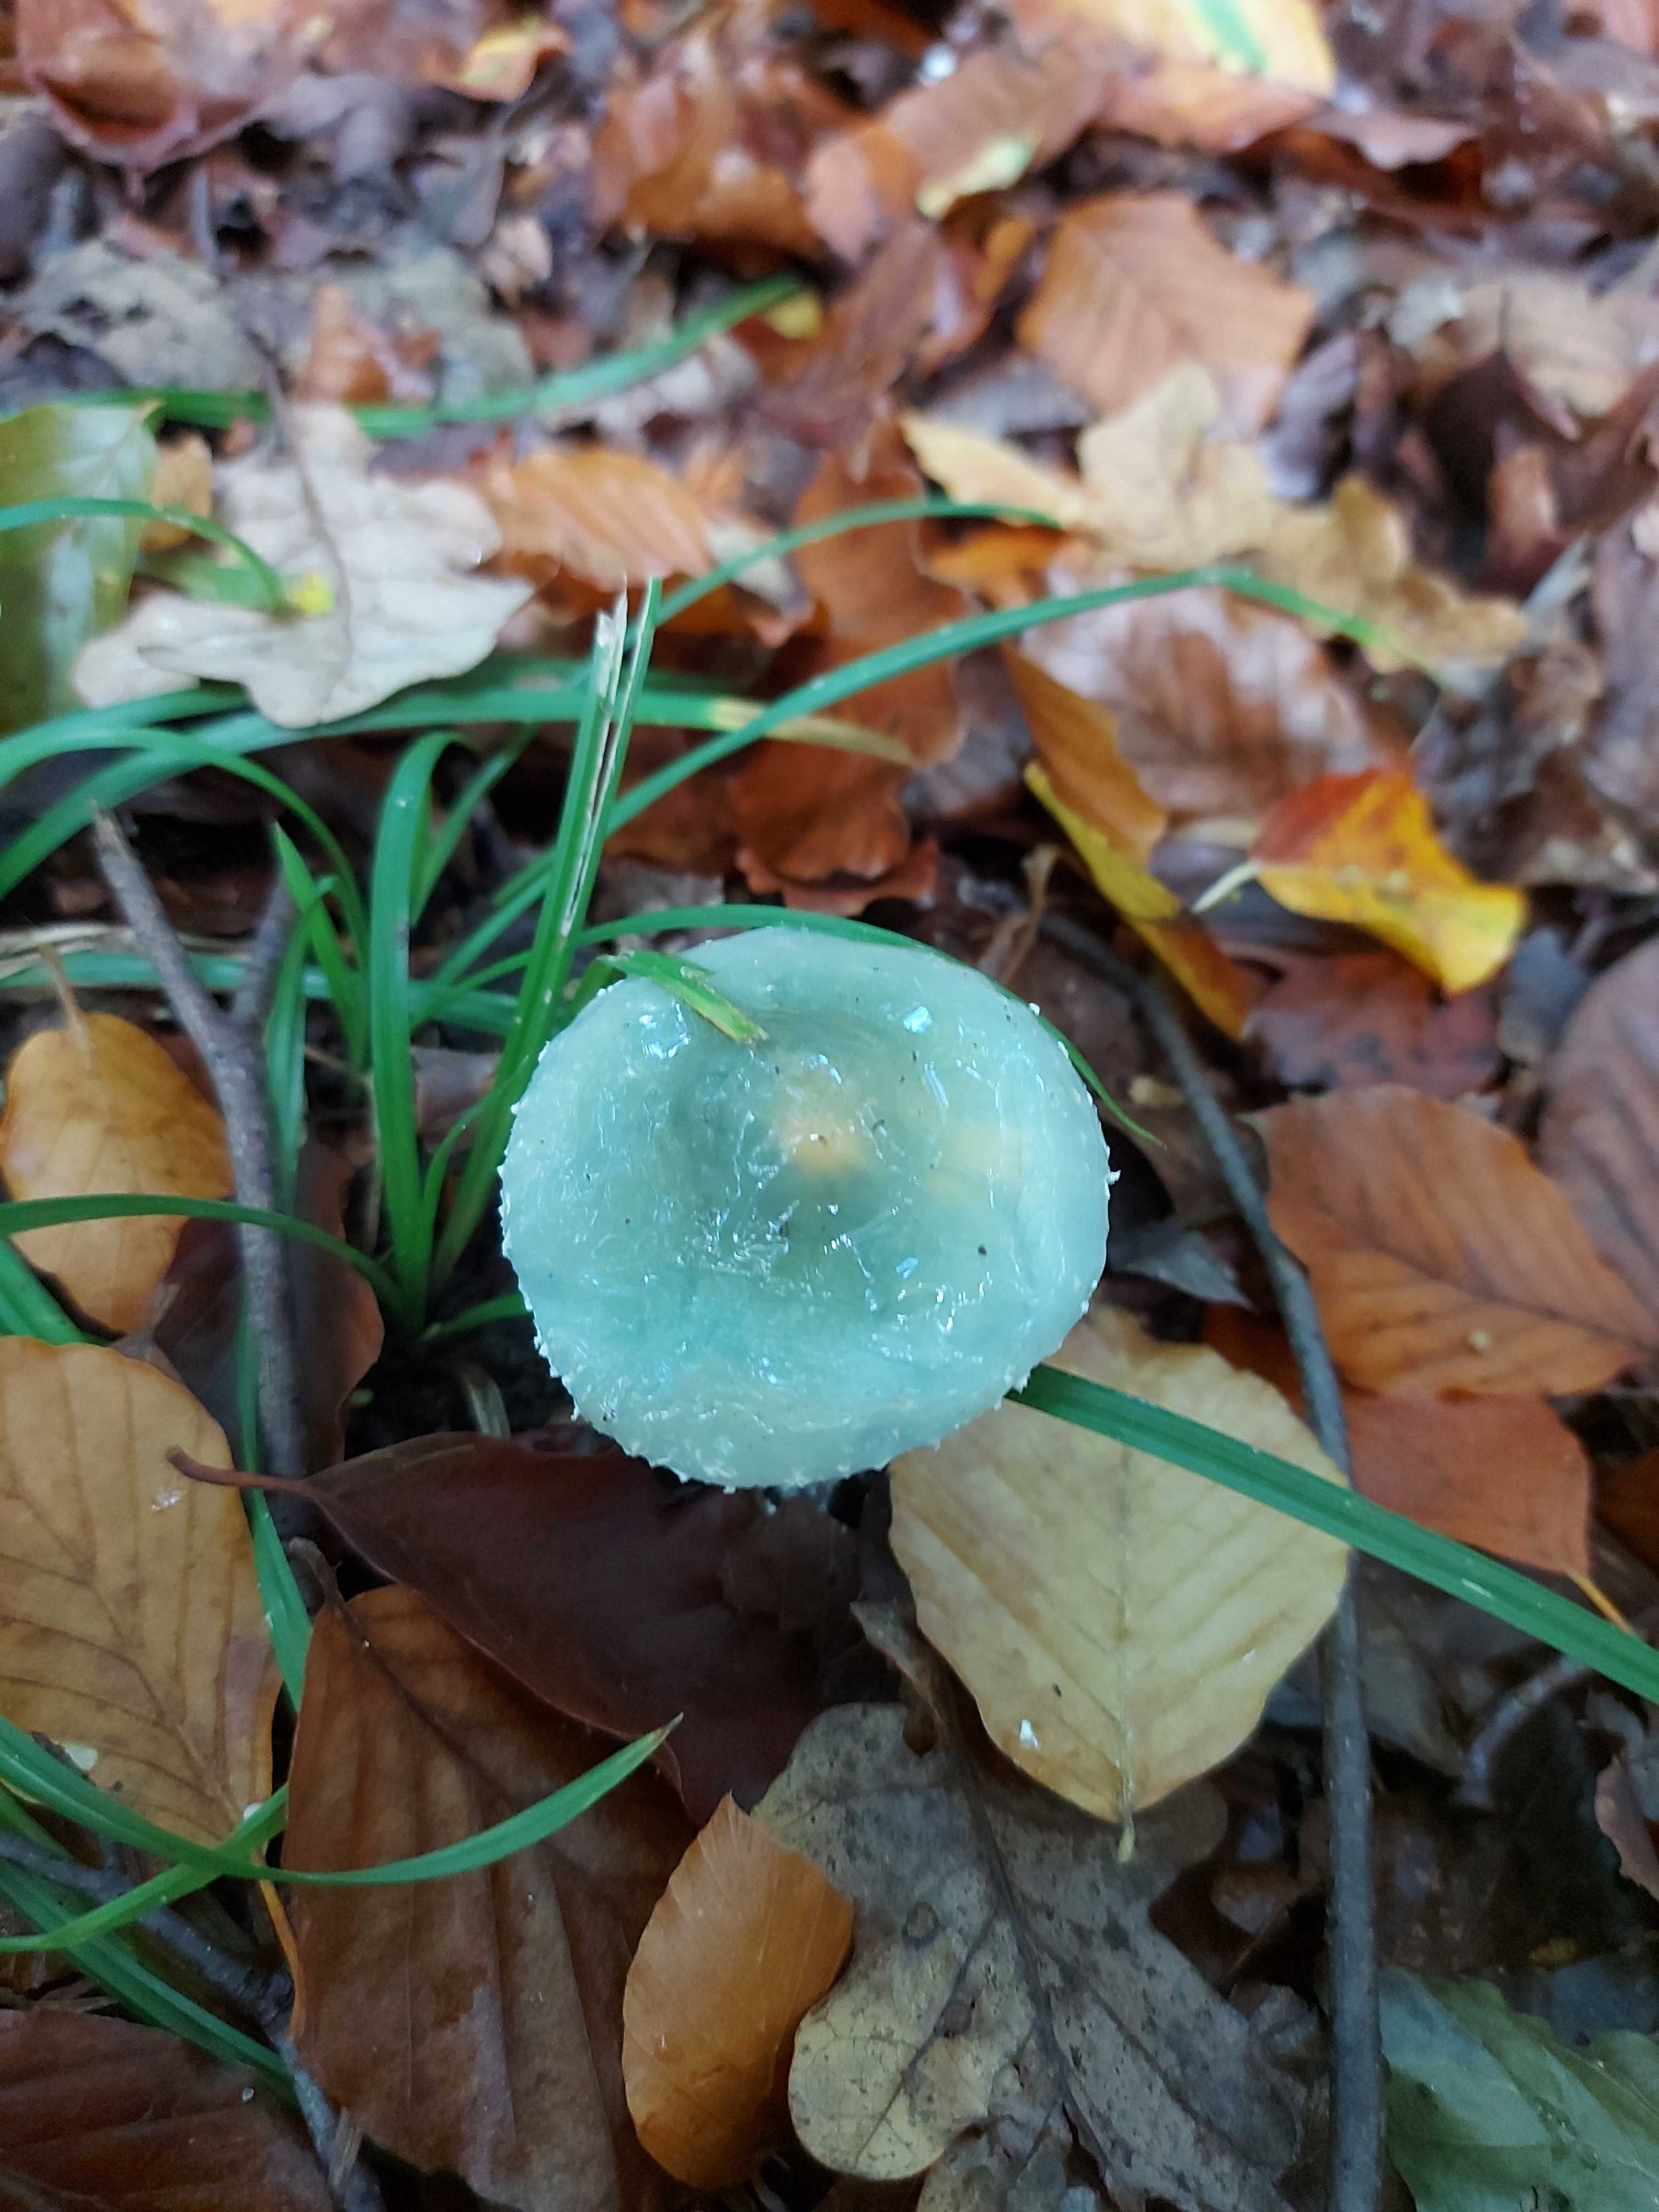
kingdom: Fungi
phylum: Basidiomycota
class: Agaricomycetes
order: Agaricales
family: Strophariaceae
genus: Stropharia
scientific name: Stropharia
